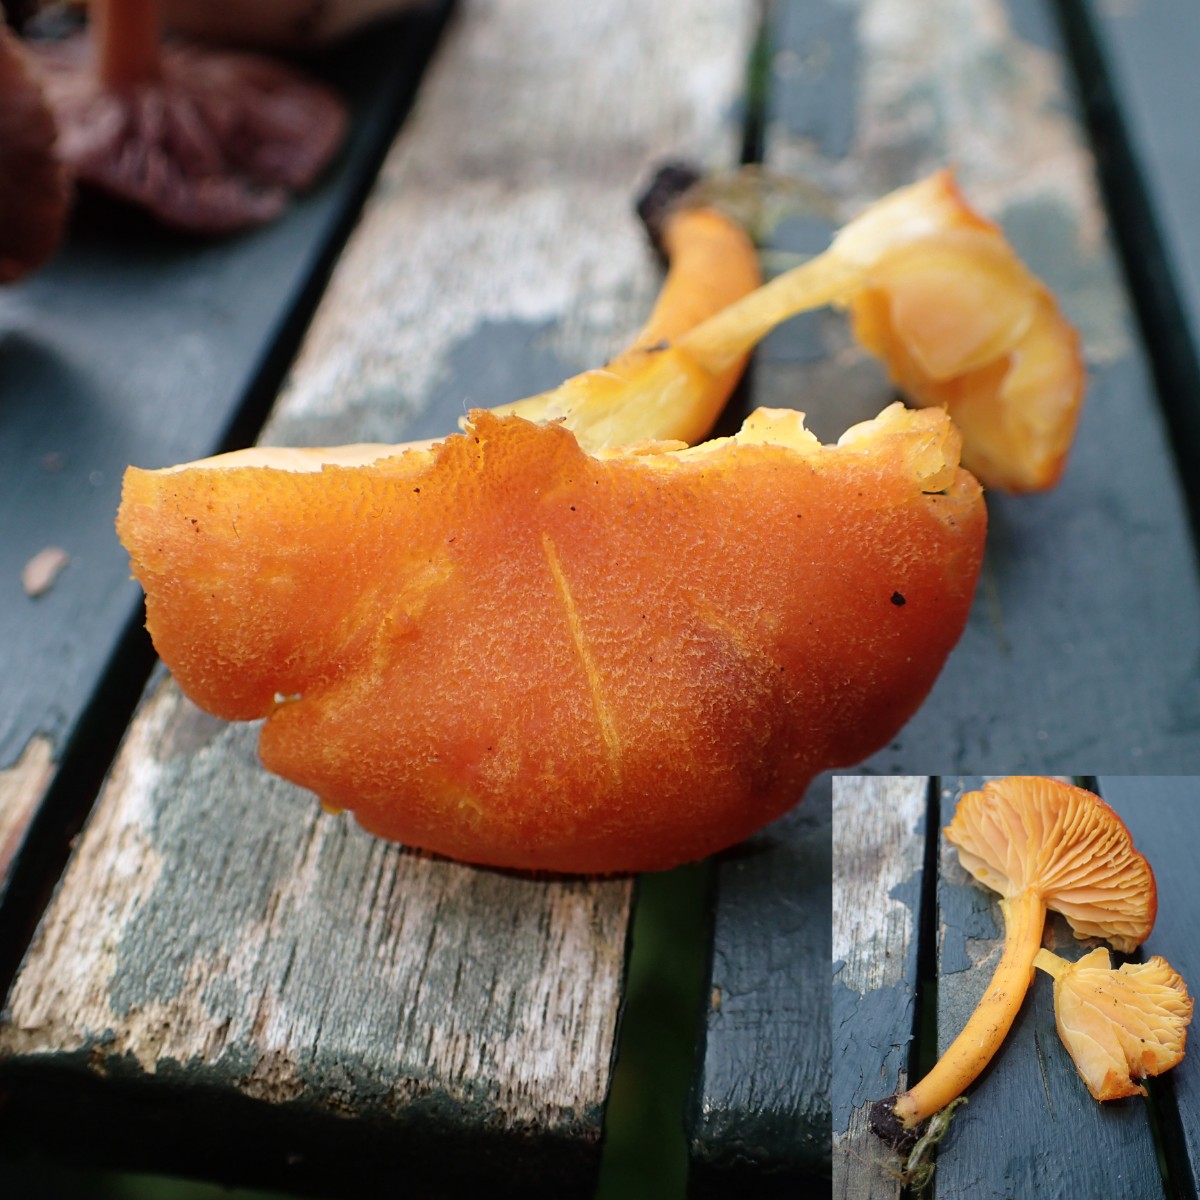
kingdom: Fungi
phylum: Basidiomycota
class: Agaricomycetes
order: Agaricales
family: Hygrophoraceae
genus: Hygrocybe
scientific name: Hygrocybe miniata
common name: mønje-vokshat
